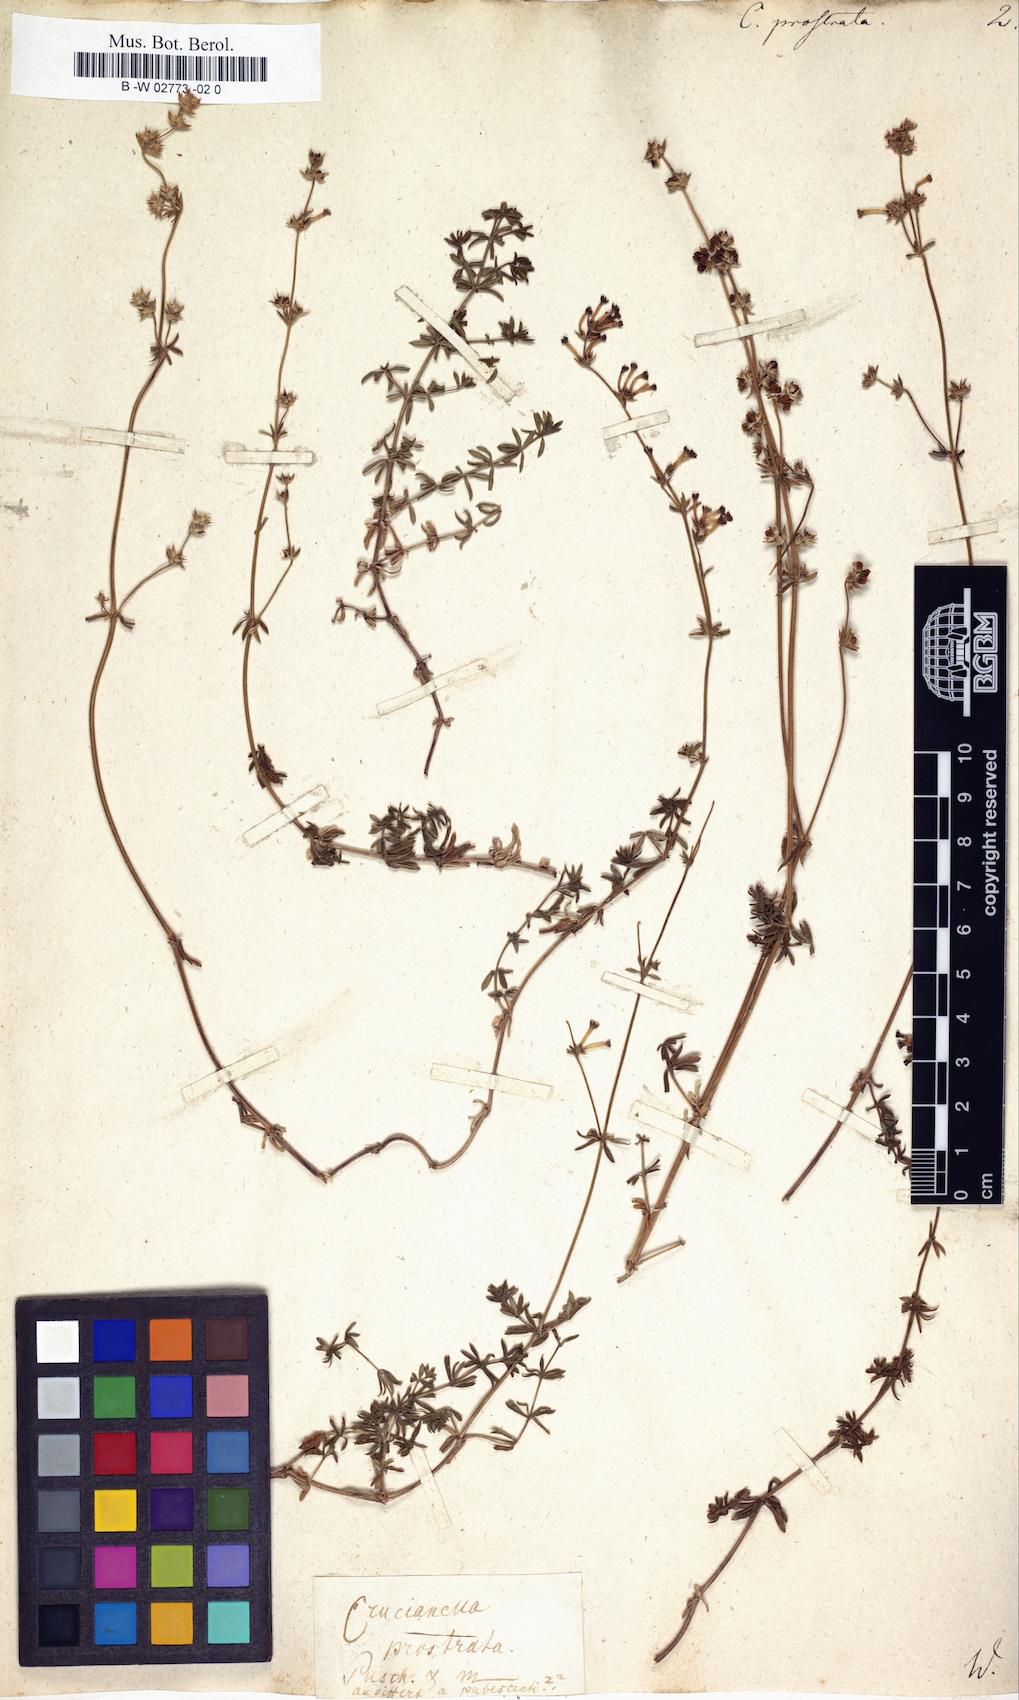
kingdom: Plantae
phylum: Tracheophyta
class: Magnoliopsida
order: Gentianales
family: Rubiaceae
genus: Asperula
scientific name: Asperula prostrata
